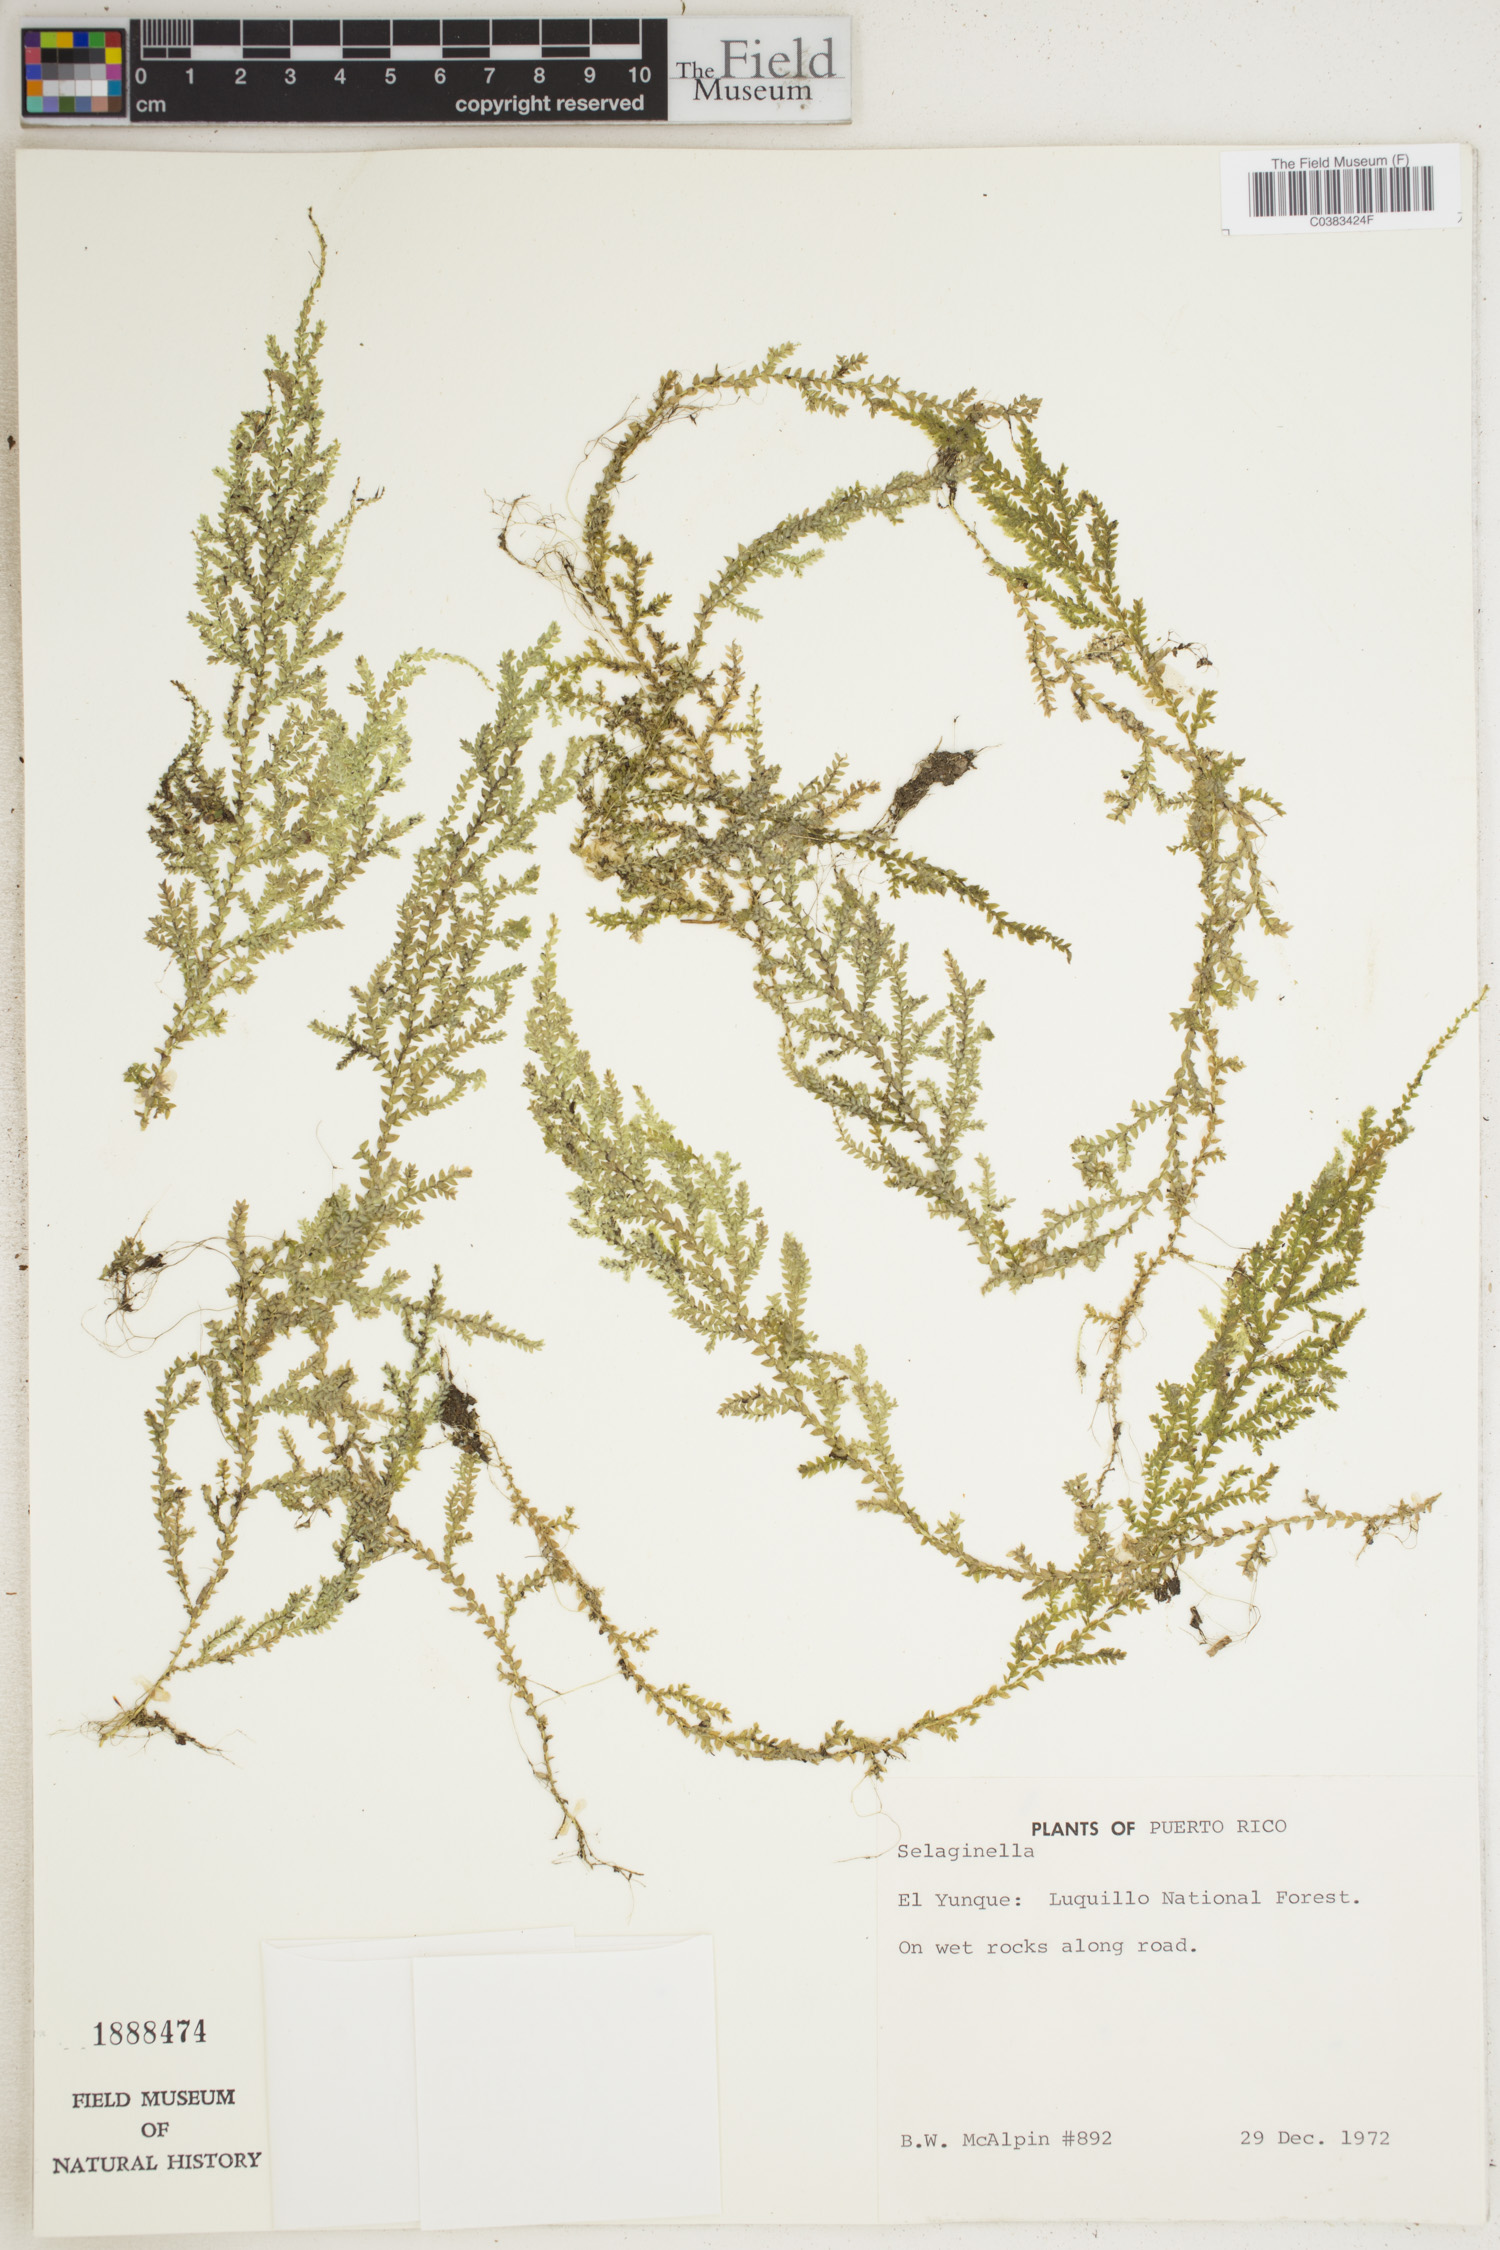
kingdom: Plantae
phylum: Tracheophyta
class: Lycopodiopsida
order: Selaginellales
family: Selaginellaceae
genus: Selaginella
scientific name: Selaginella
